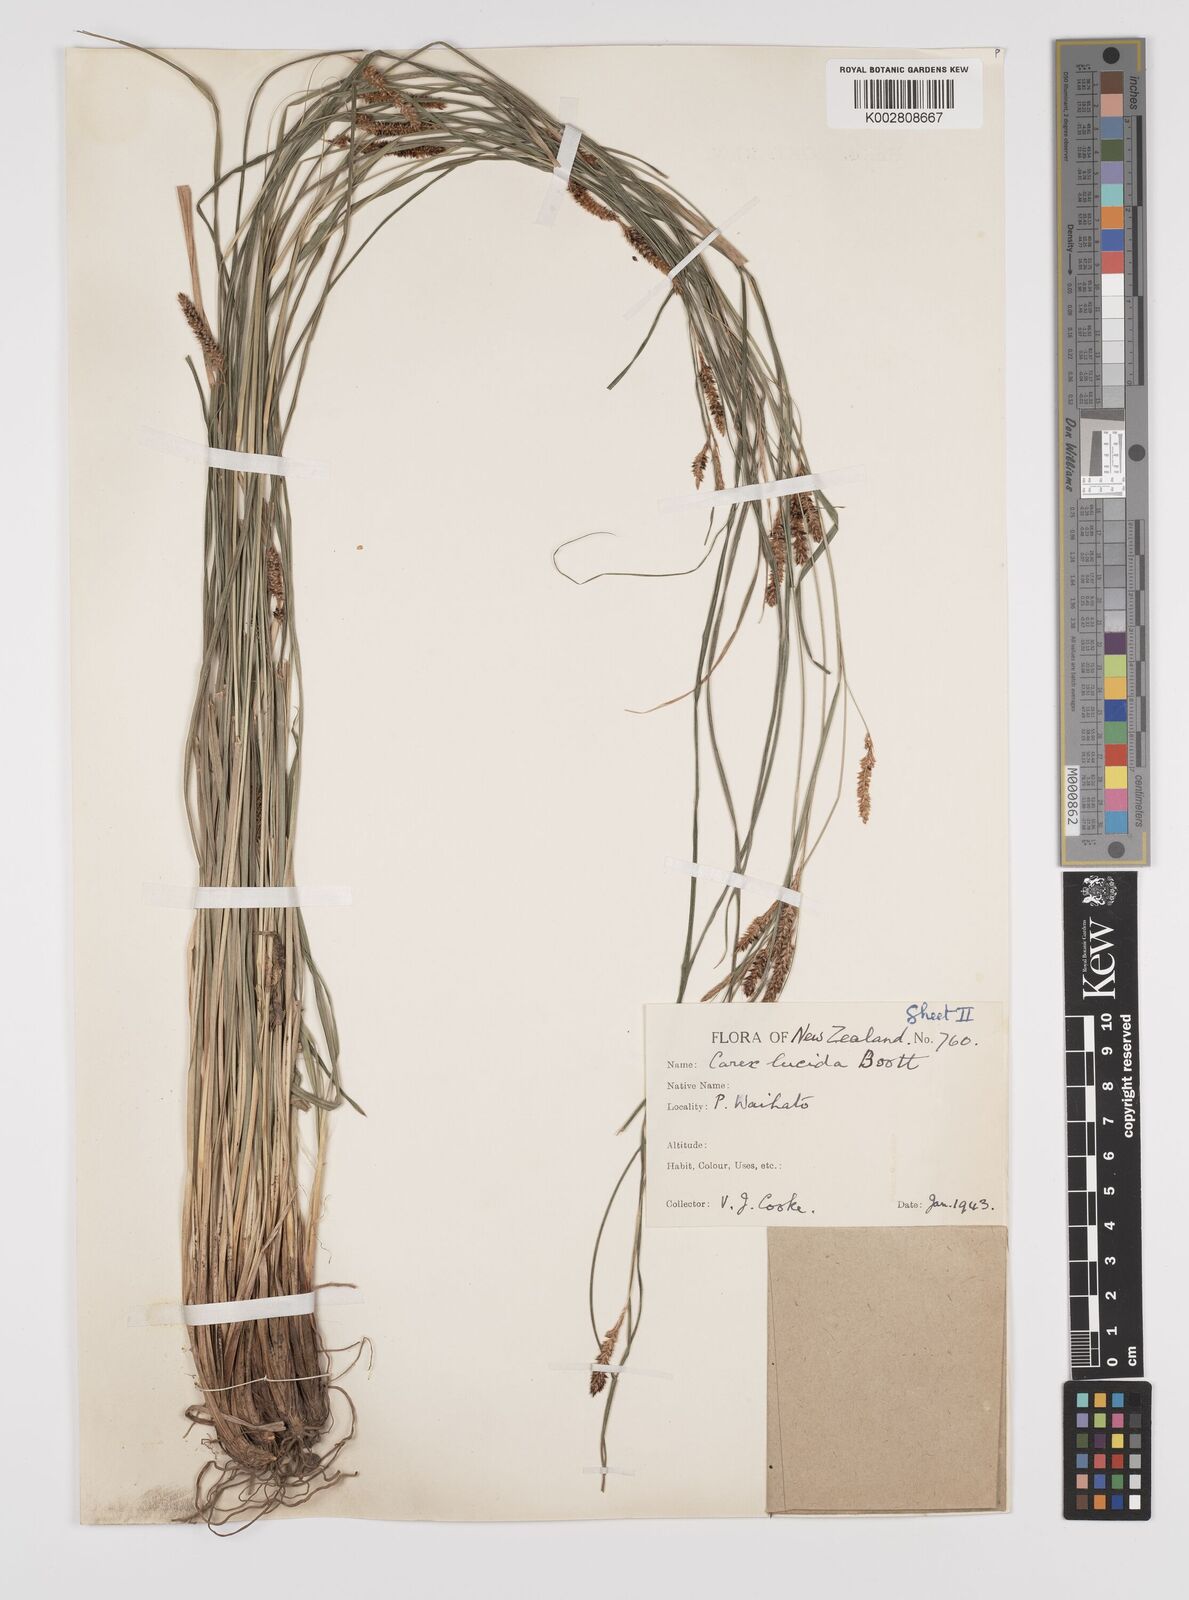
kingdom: Plantae
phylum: Tracheophyta
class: Liliopsida
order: Poales
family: Cyperaceae
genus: Carex
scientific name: Carex flagellifera
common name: Glen murray tussock
